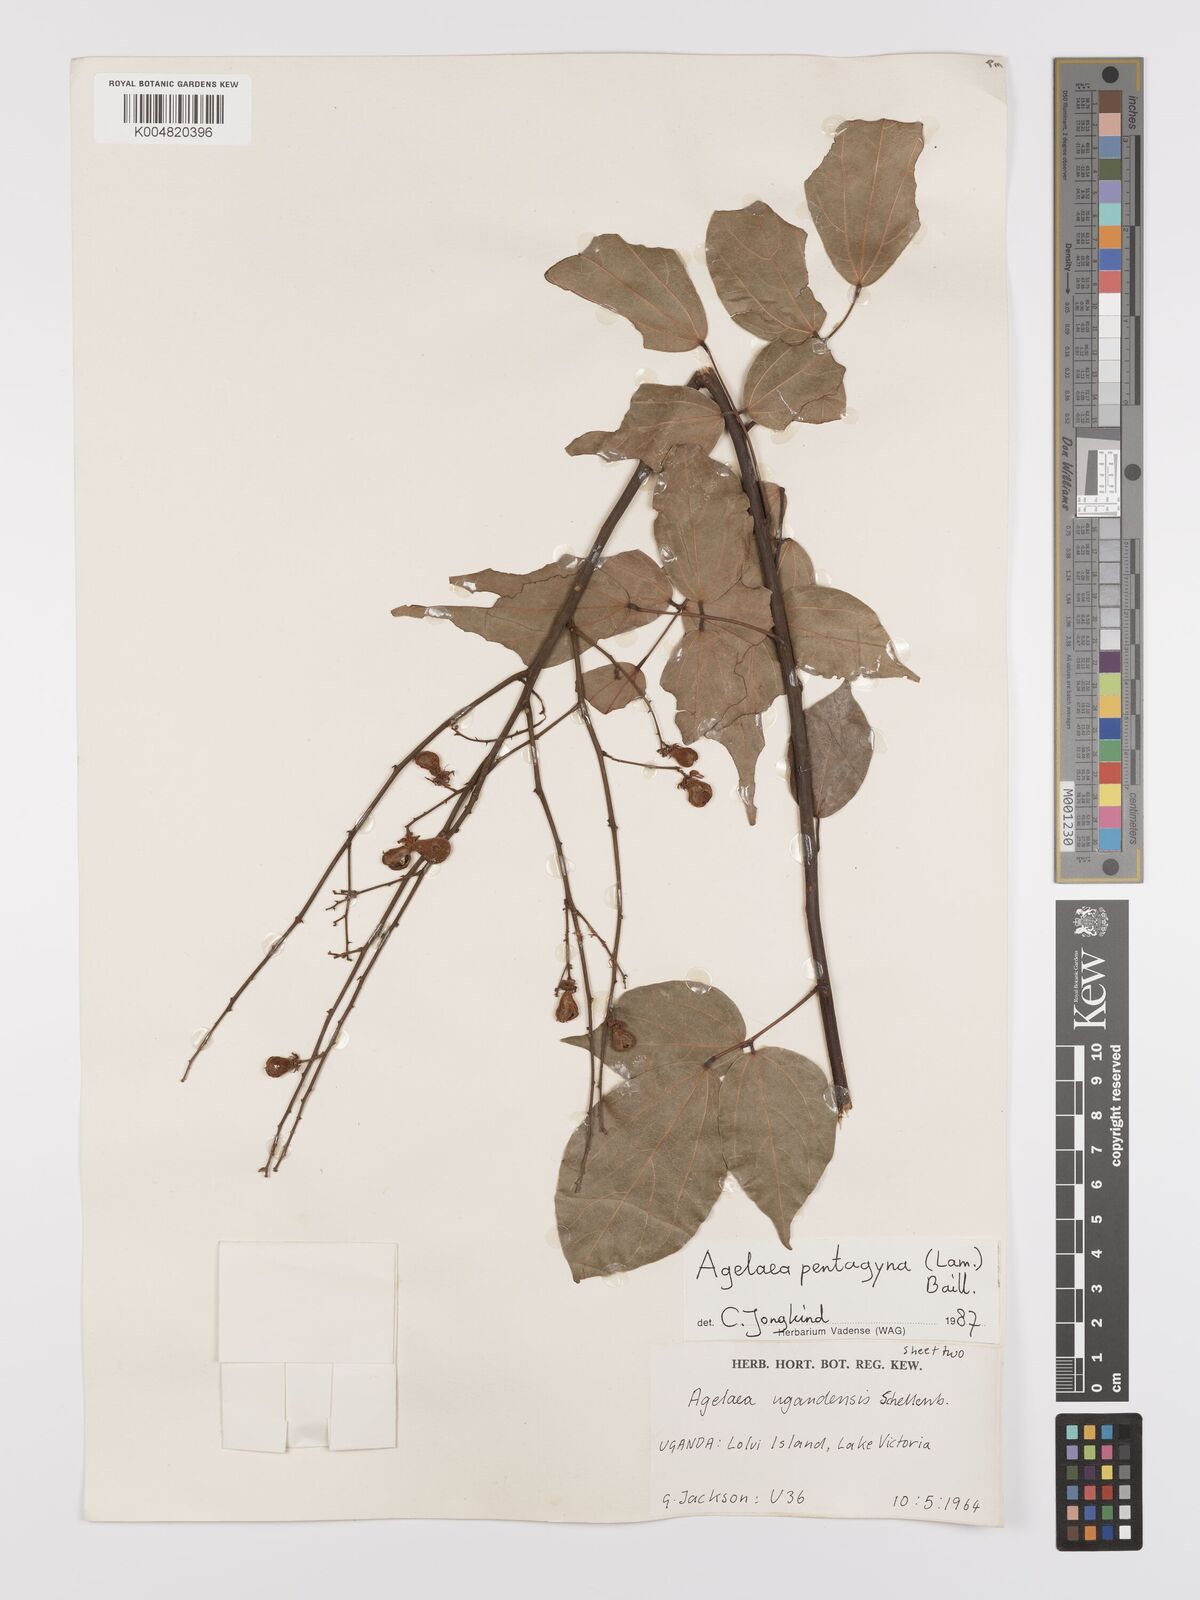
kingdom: Plantae
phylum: Tracheophyta
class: Magnoliopsida
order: Oxalidales
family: Connaraceae
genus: Agelaea
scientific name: Agelaea pentagyna
